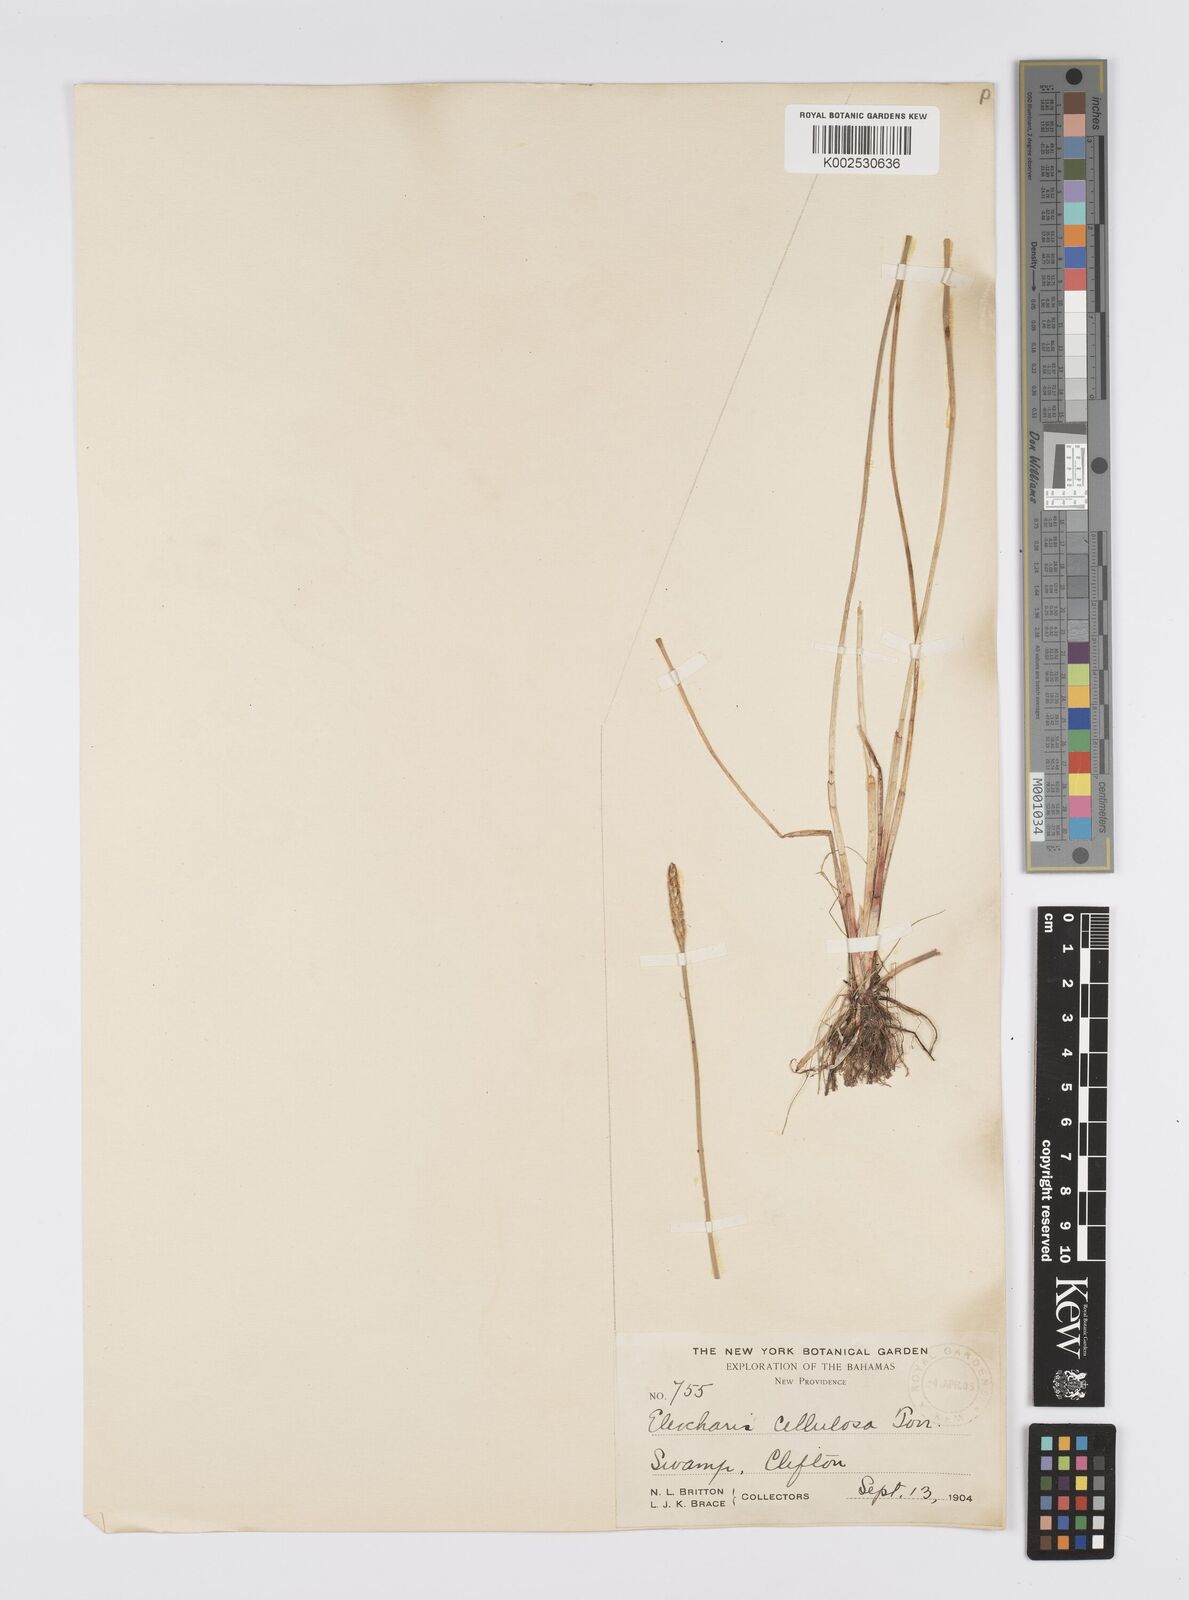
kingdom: Plantae
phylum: Tracheophyta
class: Liliopsida
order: Poales
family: Cyperaceae
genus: Eleocharis
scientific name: Eleocharis erhaiensis
